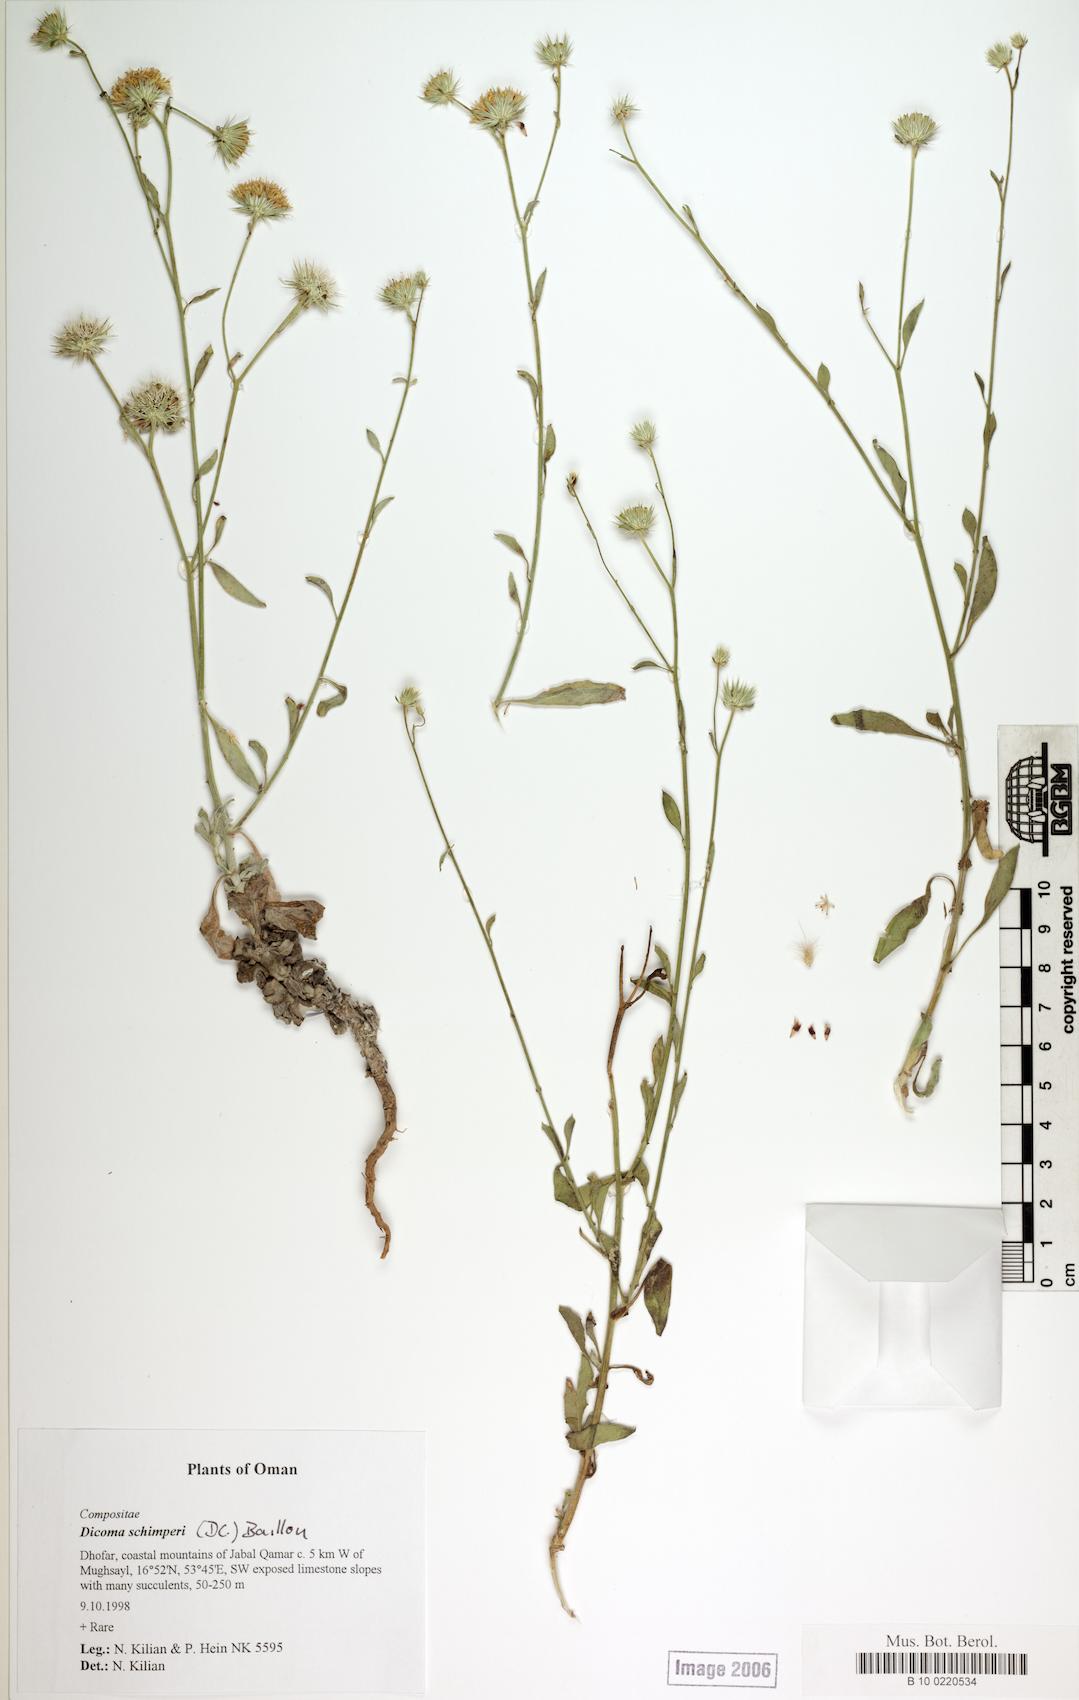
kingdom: Plantae
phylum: Tracheophyta
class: Magnoliopsida
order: Caryophyllales
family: Caryophyllaceae
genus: Stellaria
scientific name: Stellaria media
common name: Common chickweed
